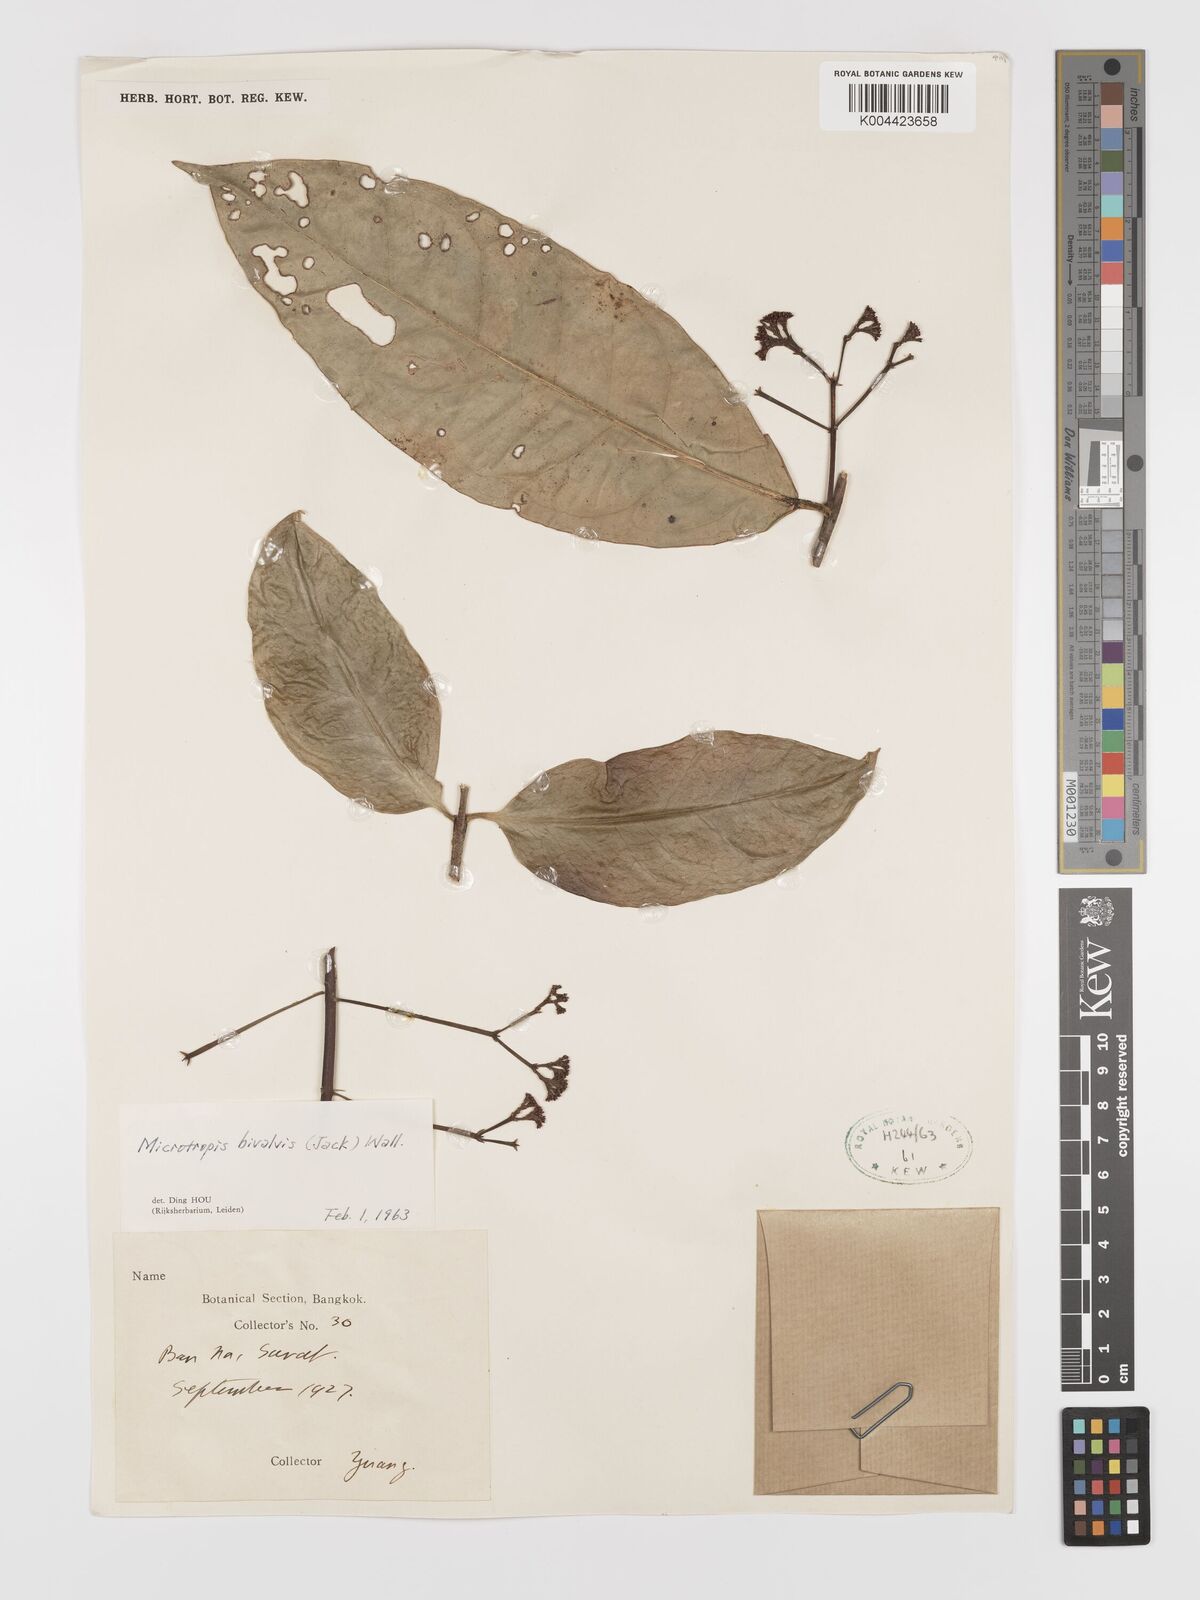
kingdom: Plantae
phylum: Tracheophyta
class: Magnoliopsida
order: Celastrales
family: Celastraceae
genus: Microtropis
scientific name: Microtropis bivalvis
